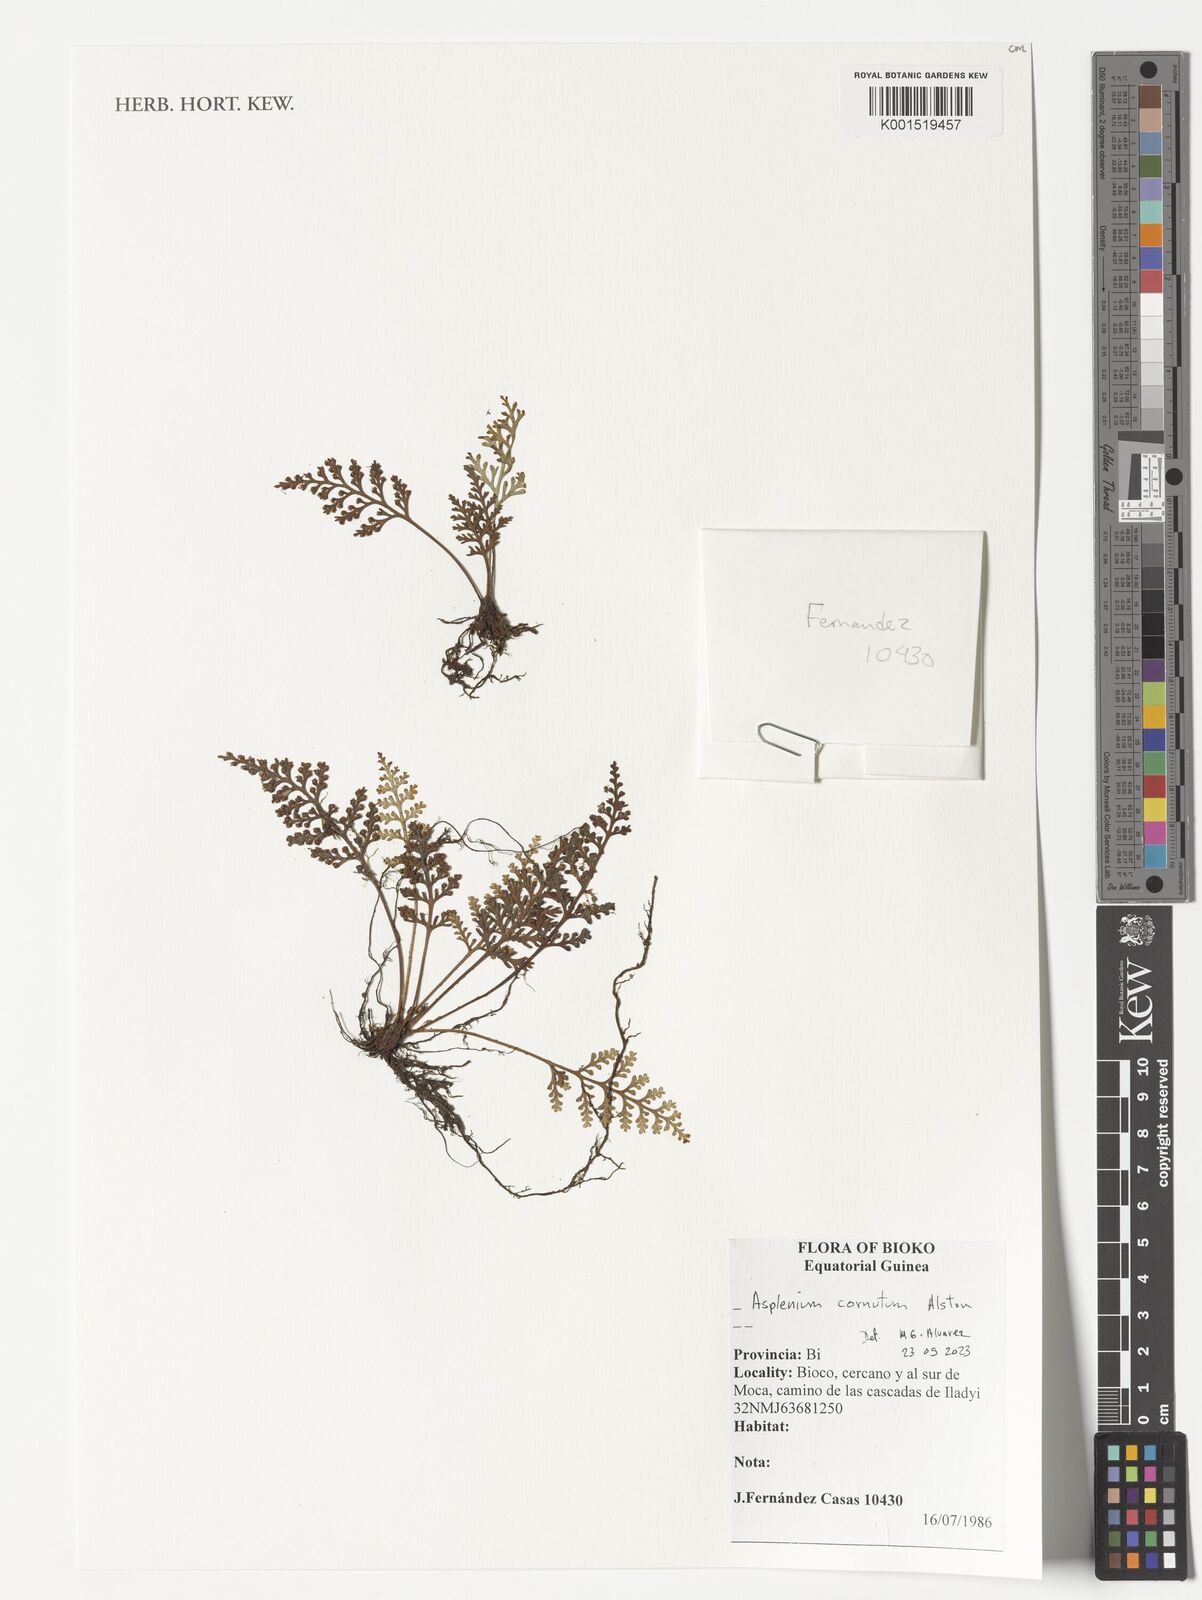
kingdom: Plantae
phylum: Tracheophyta
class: Polypodiopsida
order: Polypodiales
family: Aspleniaceae
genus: Asplenium
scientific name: Asplenium cornutum
